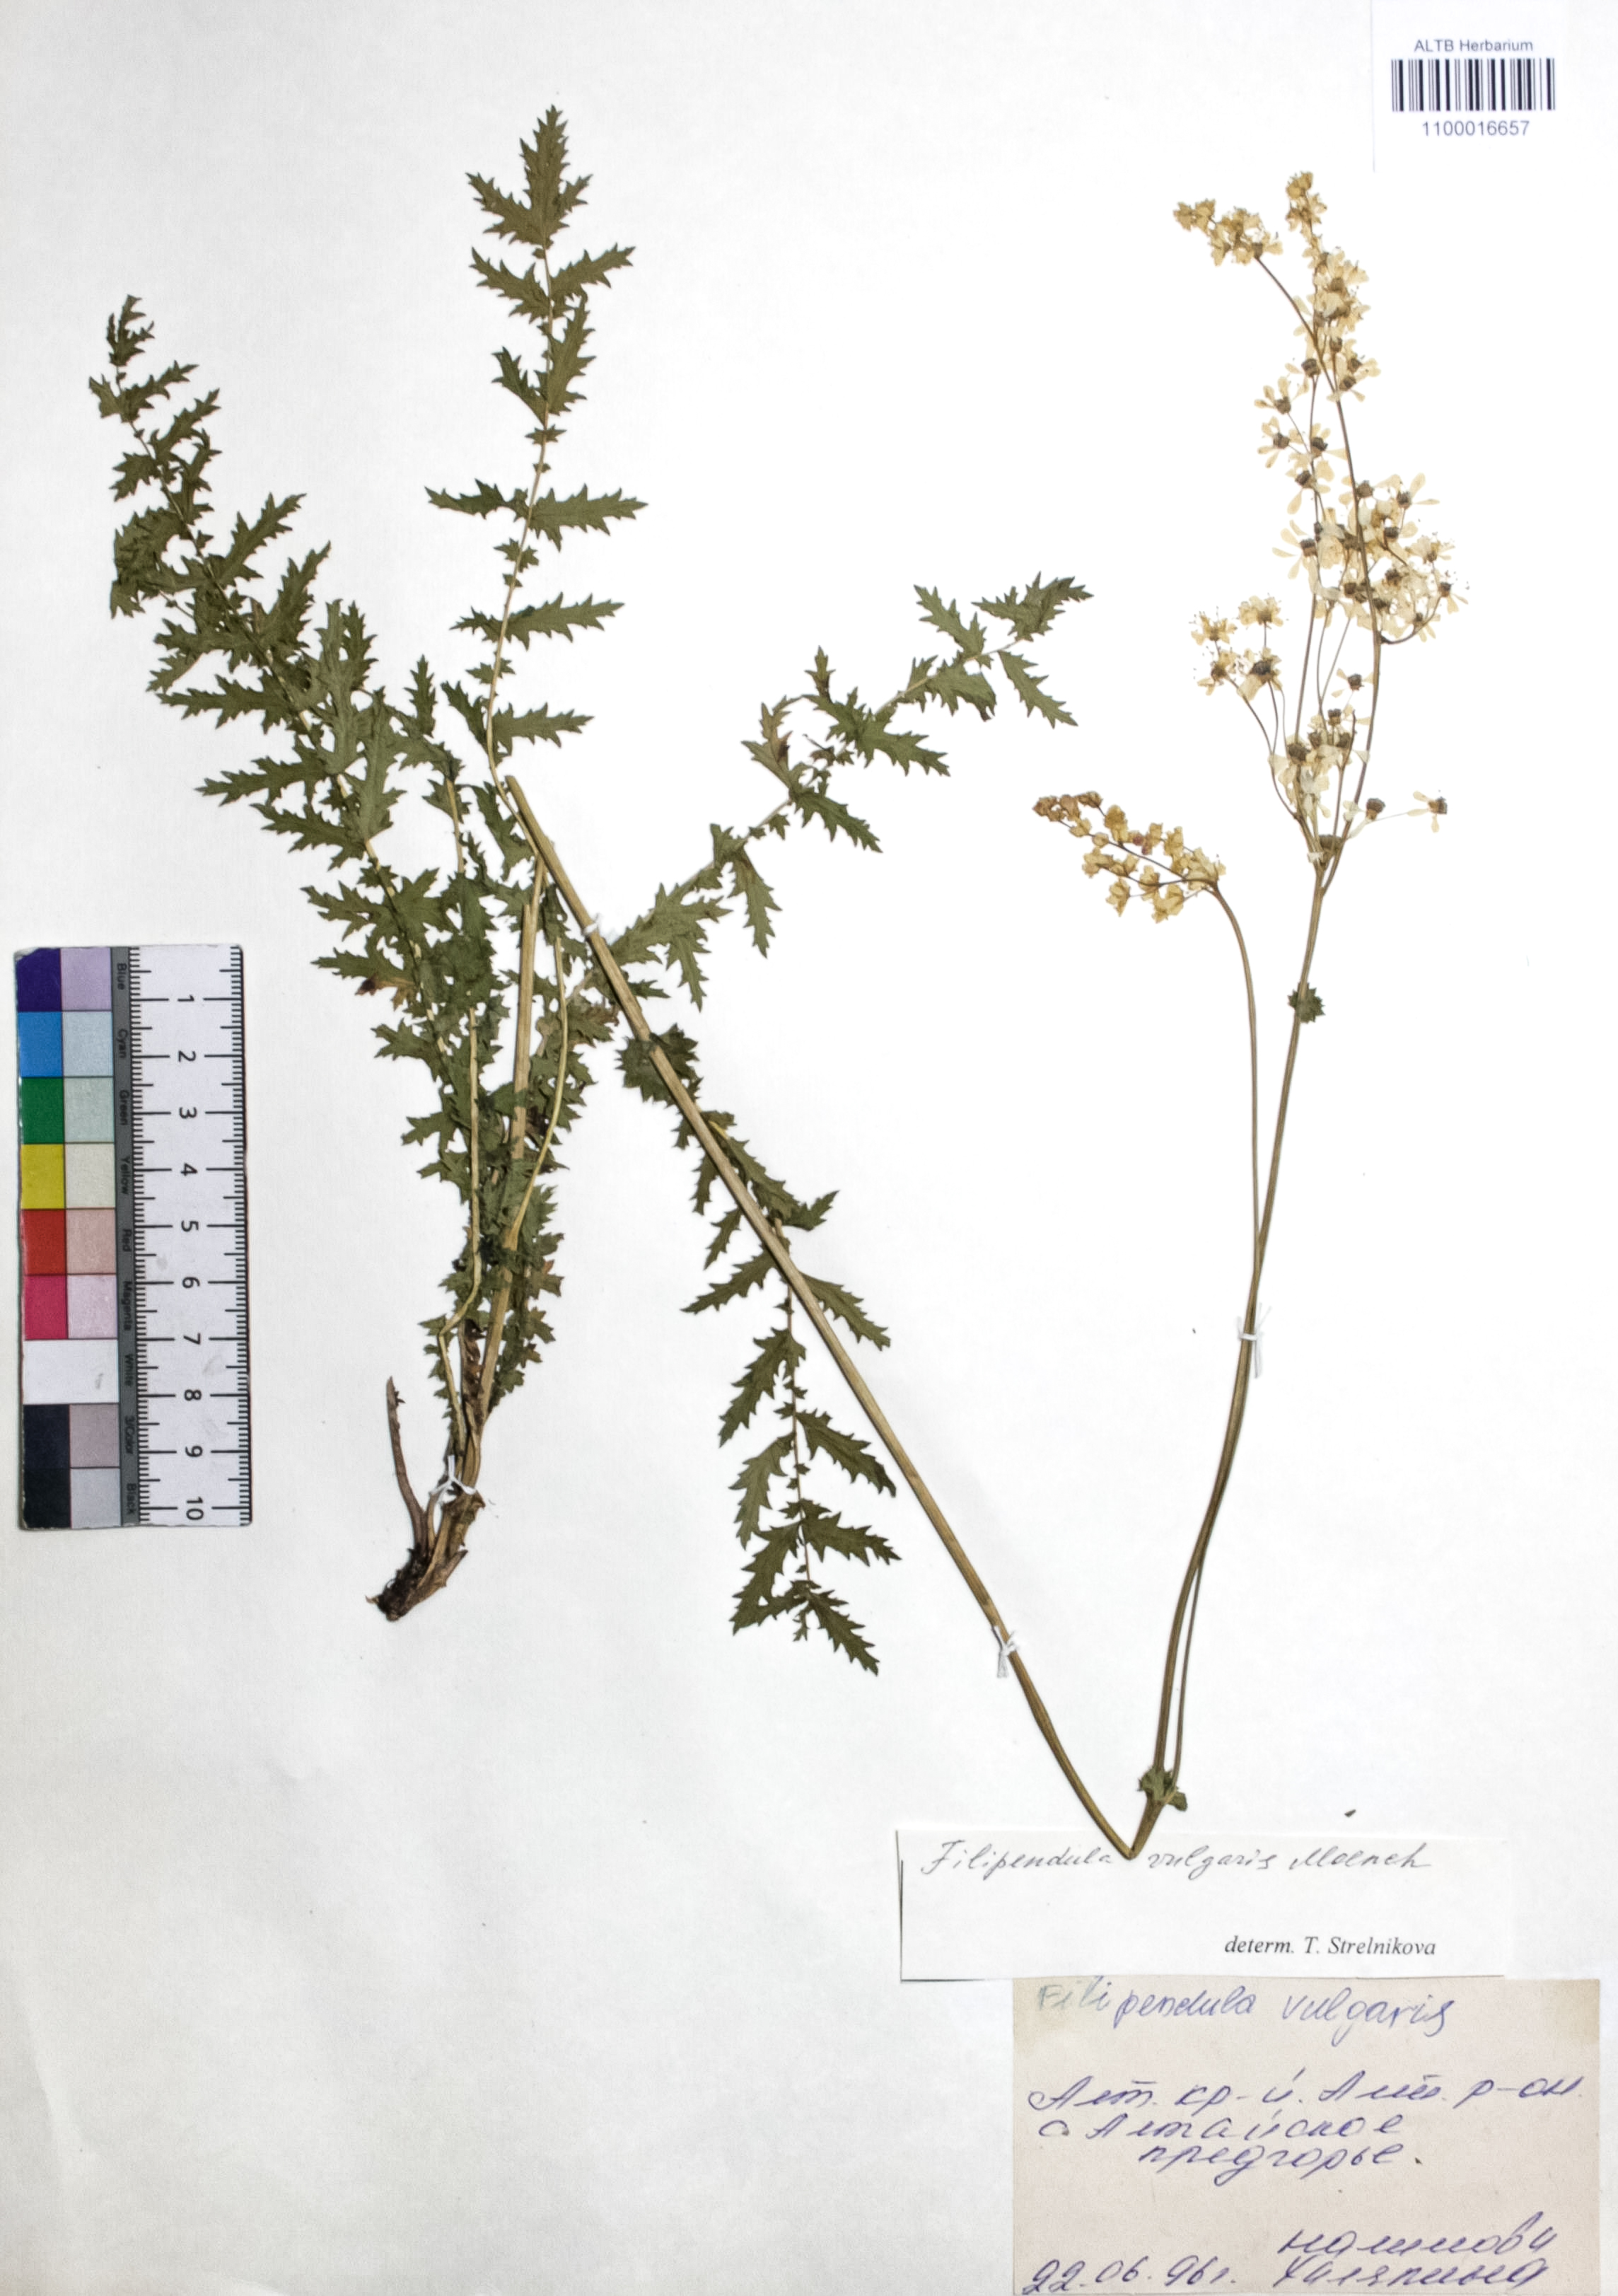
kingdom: Plantae
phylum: Tracheophyta
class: Magnoliopsida
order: Rosales
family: Rosaceae
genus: Filipendula
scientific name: Filipendula vulgaris
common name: Dropwort
